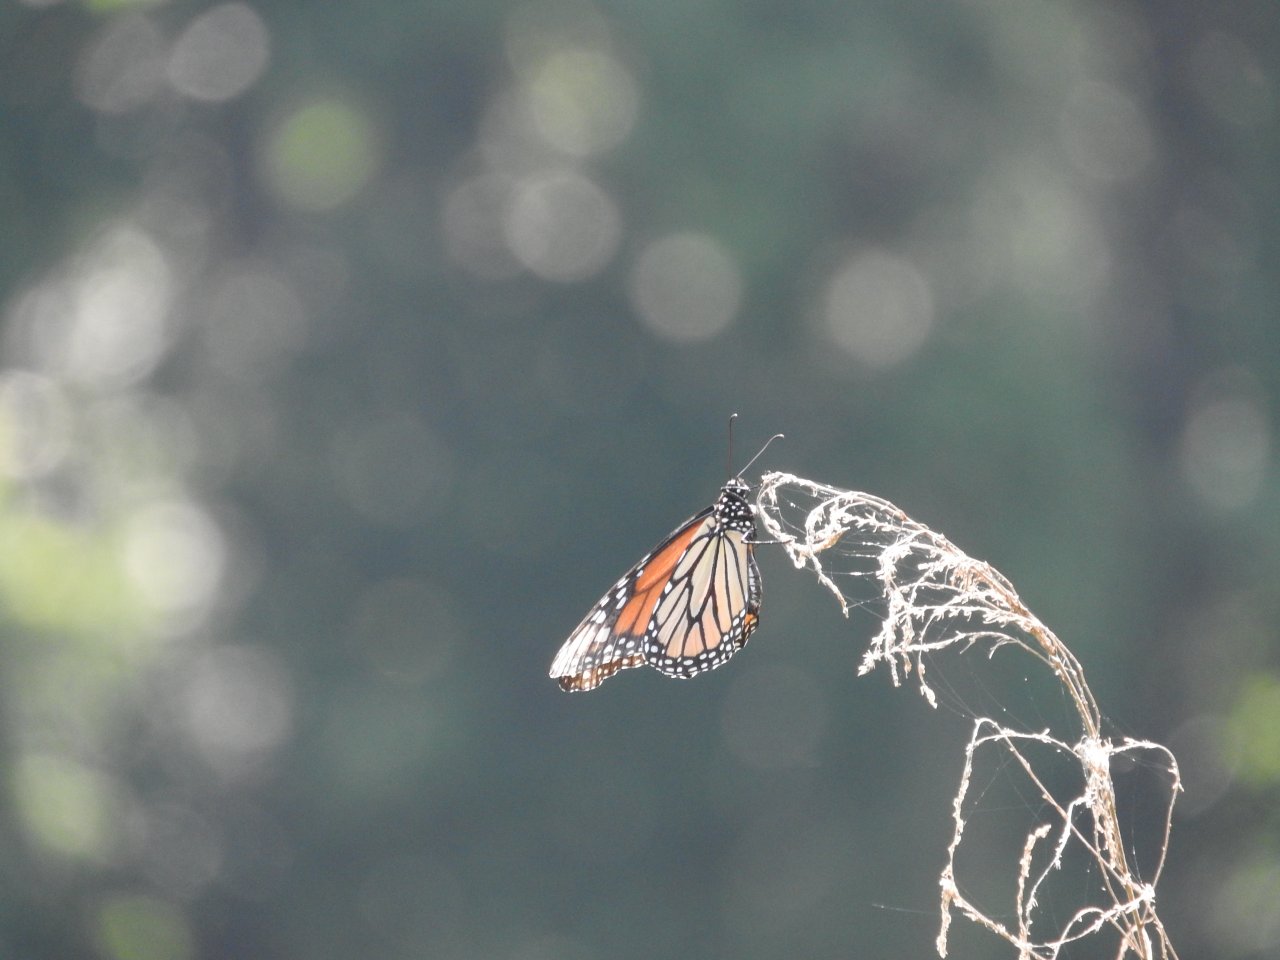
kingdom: Animalia
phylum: Arthropoda
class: Insecta
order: Lepidoptera
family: Nymphalidae
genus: Danaus
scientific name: Danaus plexippus
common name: Monarch
